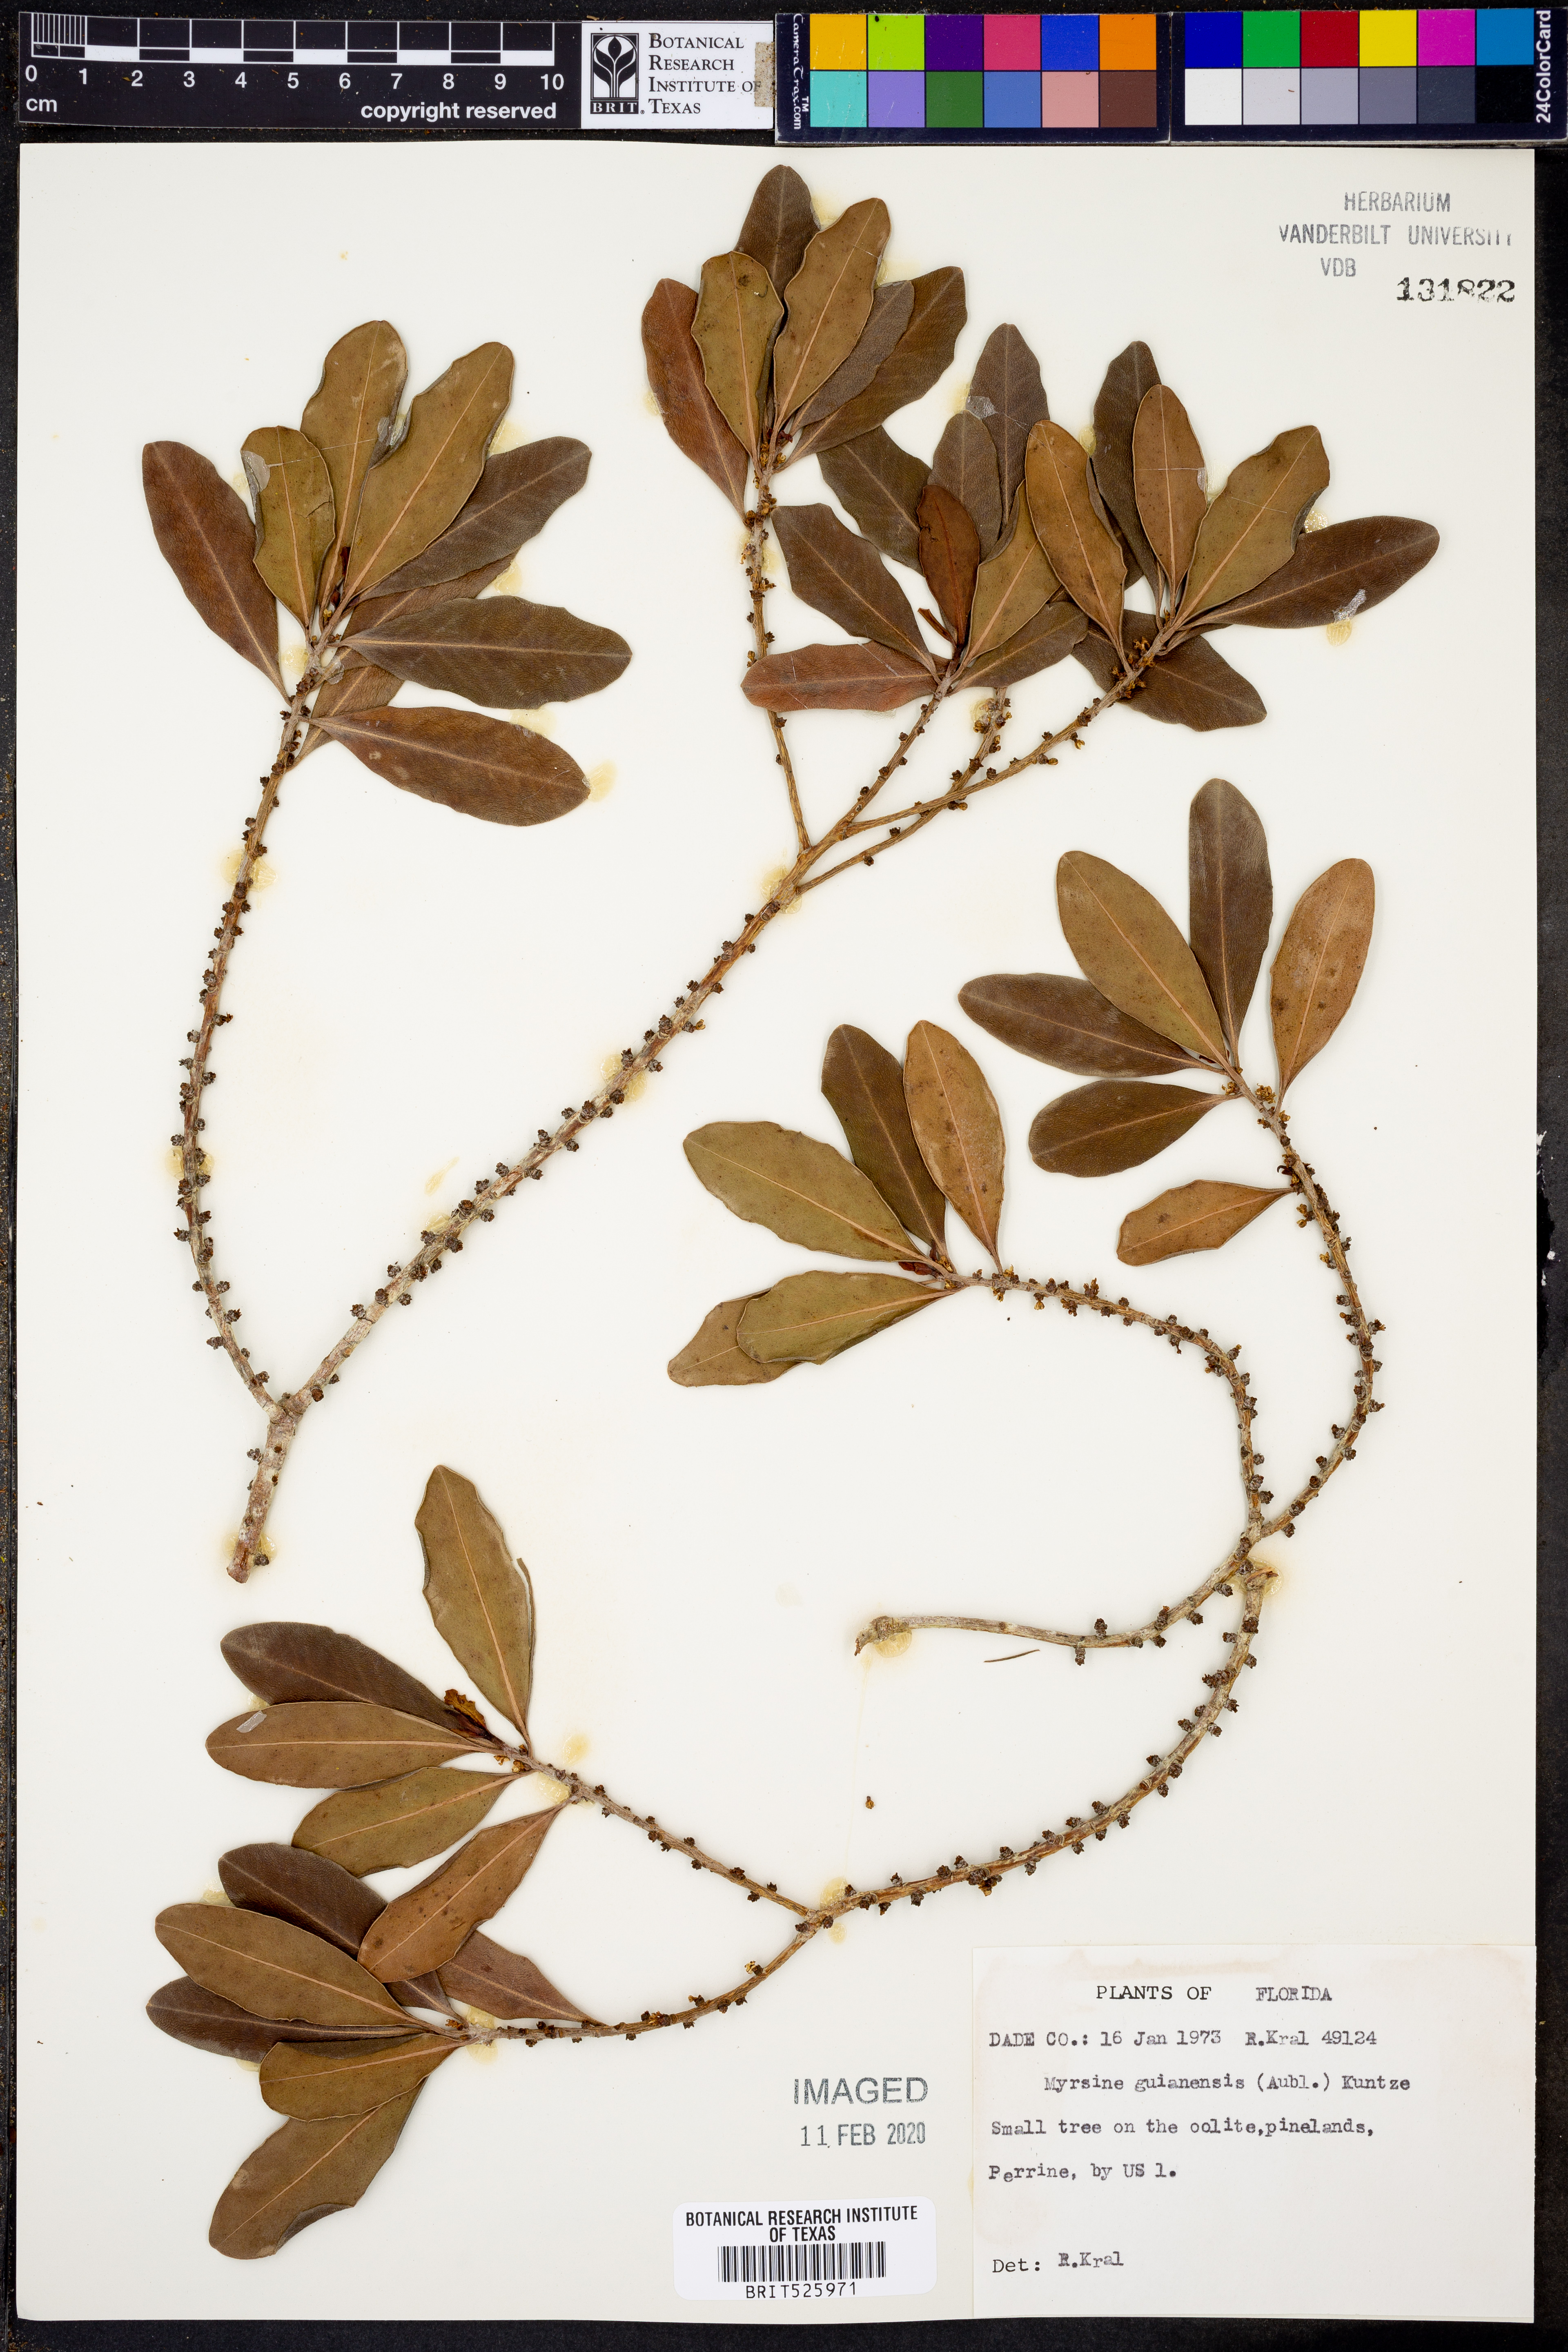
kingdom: Plantae
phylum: Tracheophyta
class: Magnoliopsida
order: Ericales
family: Primulaceae
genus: Myrsine
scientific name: Myrsine guianensis
